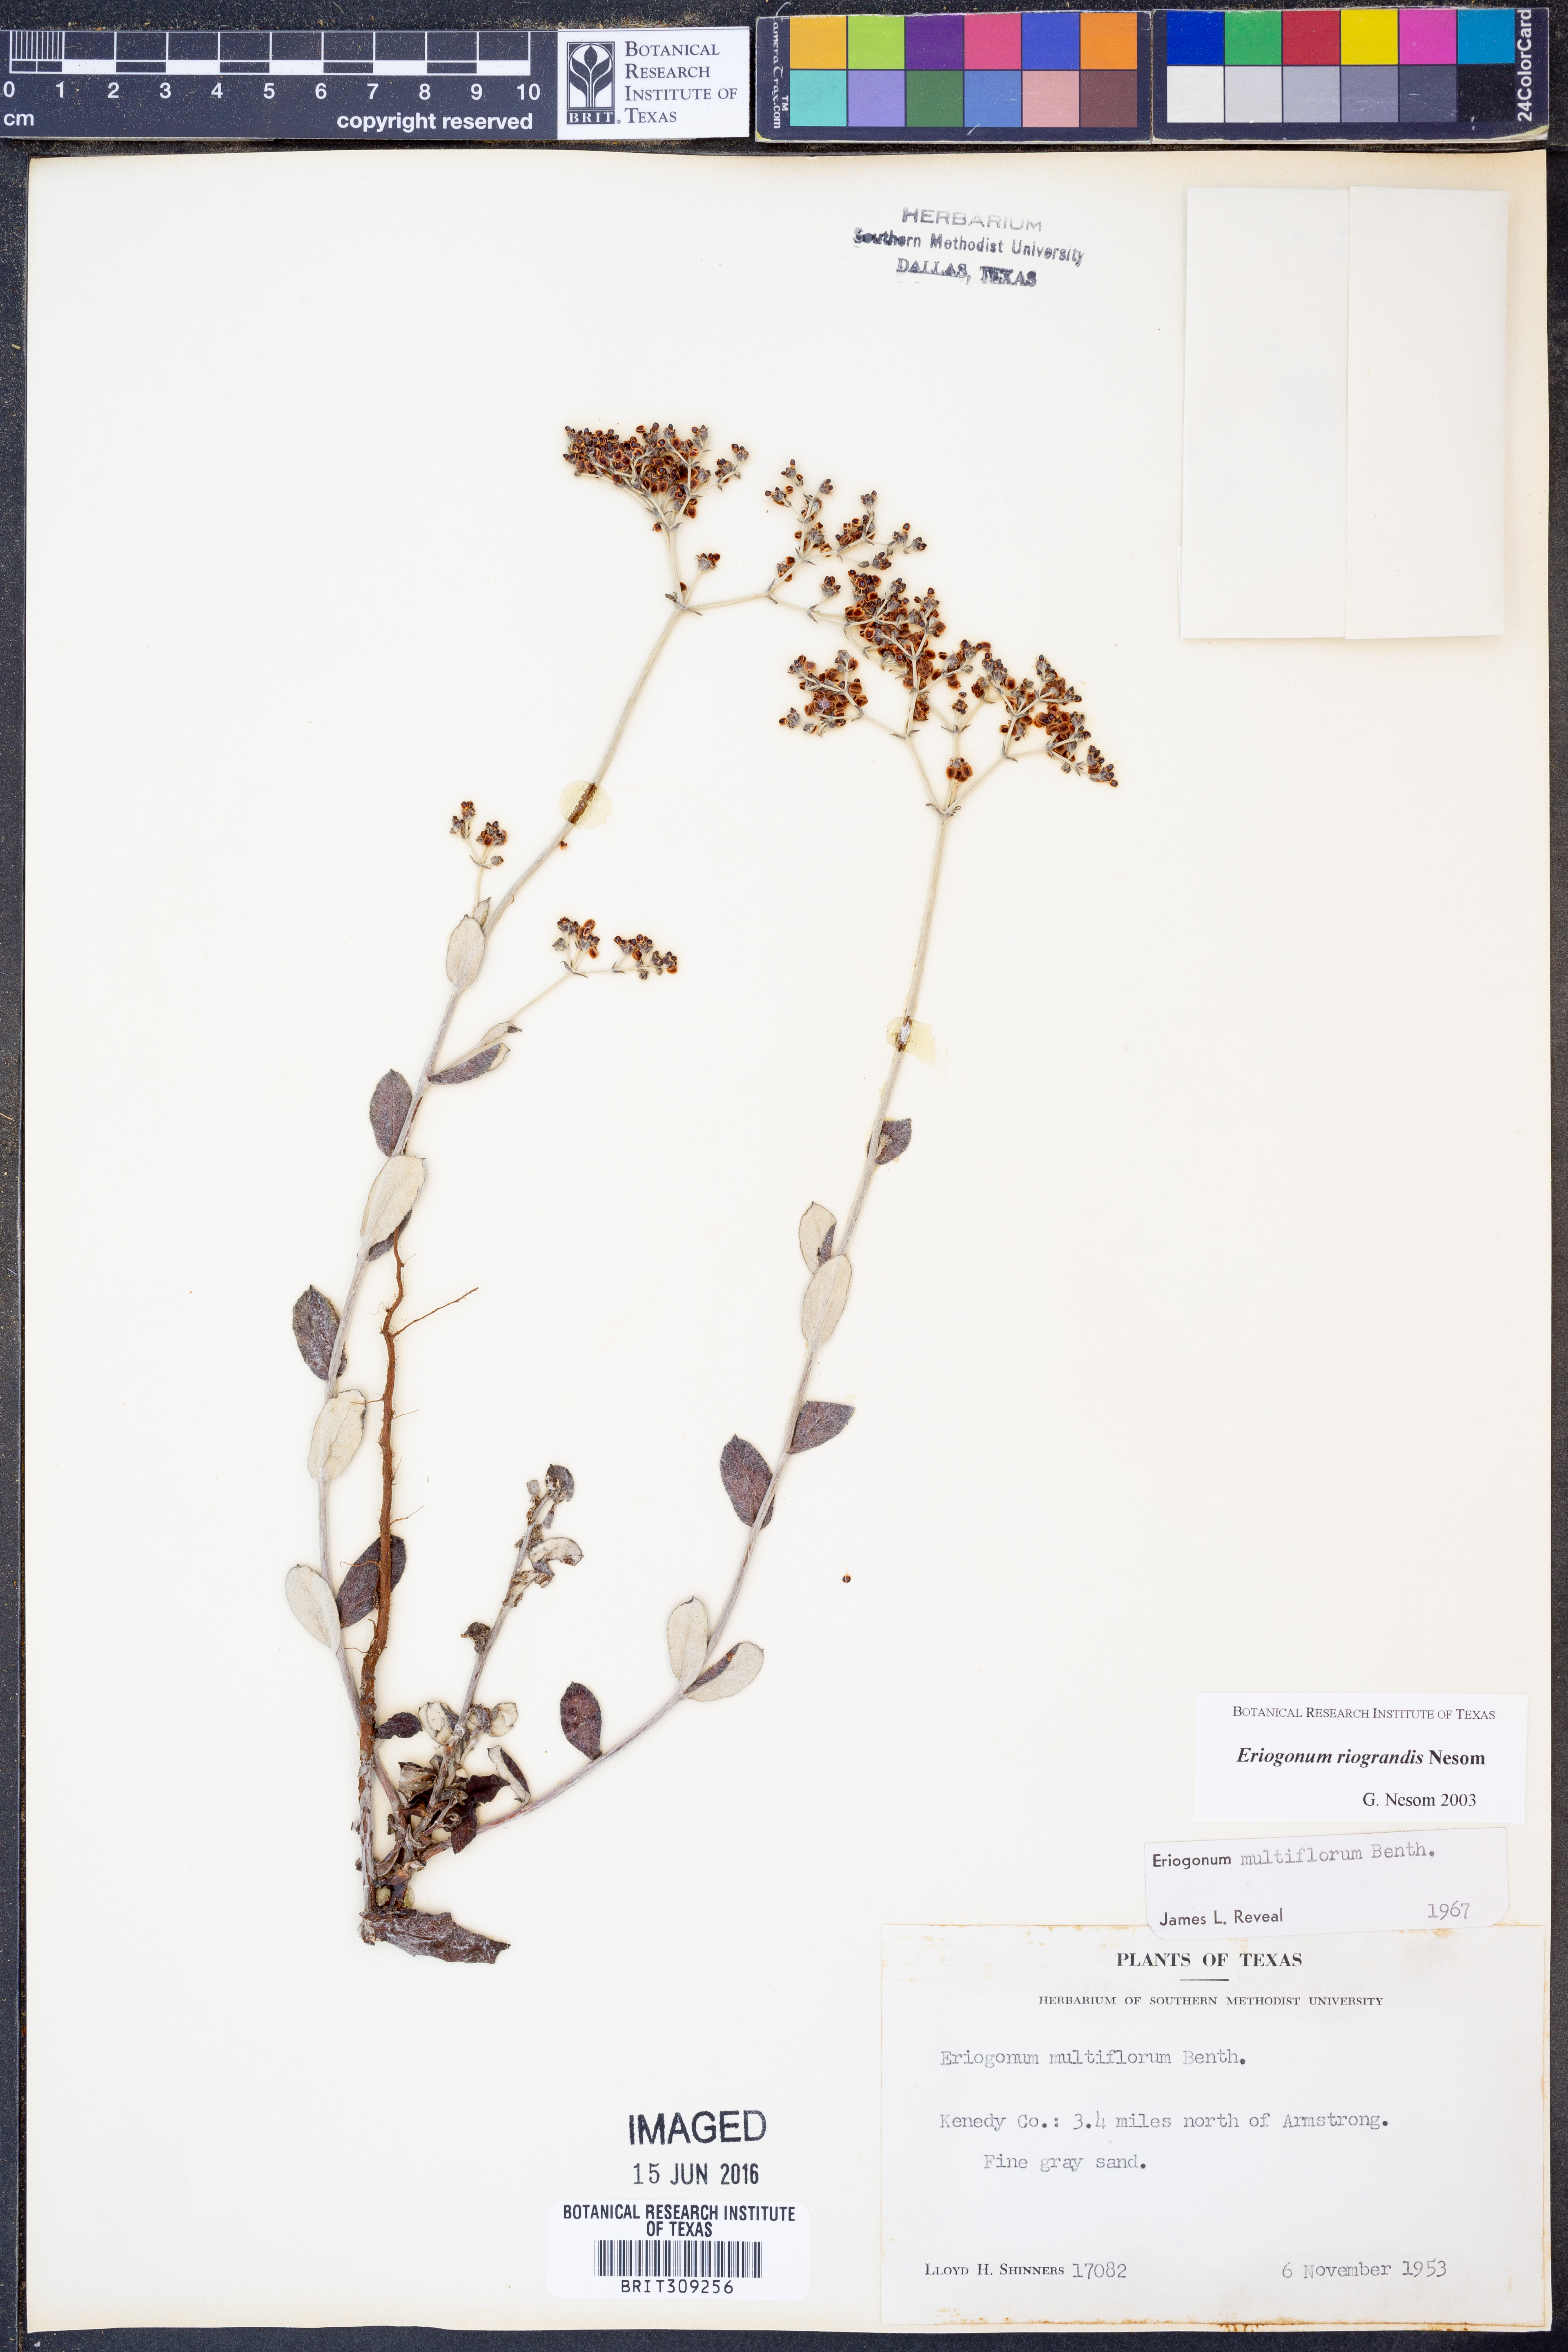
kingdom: Plantae
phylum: Tracheophyta
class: Magnoliopsida
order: Caryophyllales
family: Polygonaceae
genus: Eriogonum
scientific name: Eriogonum multiflorum
